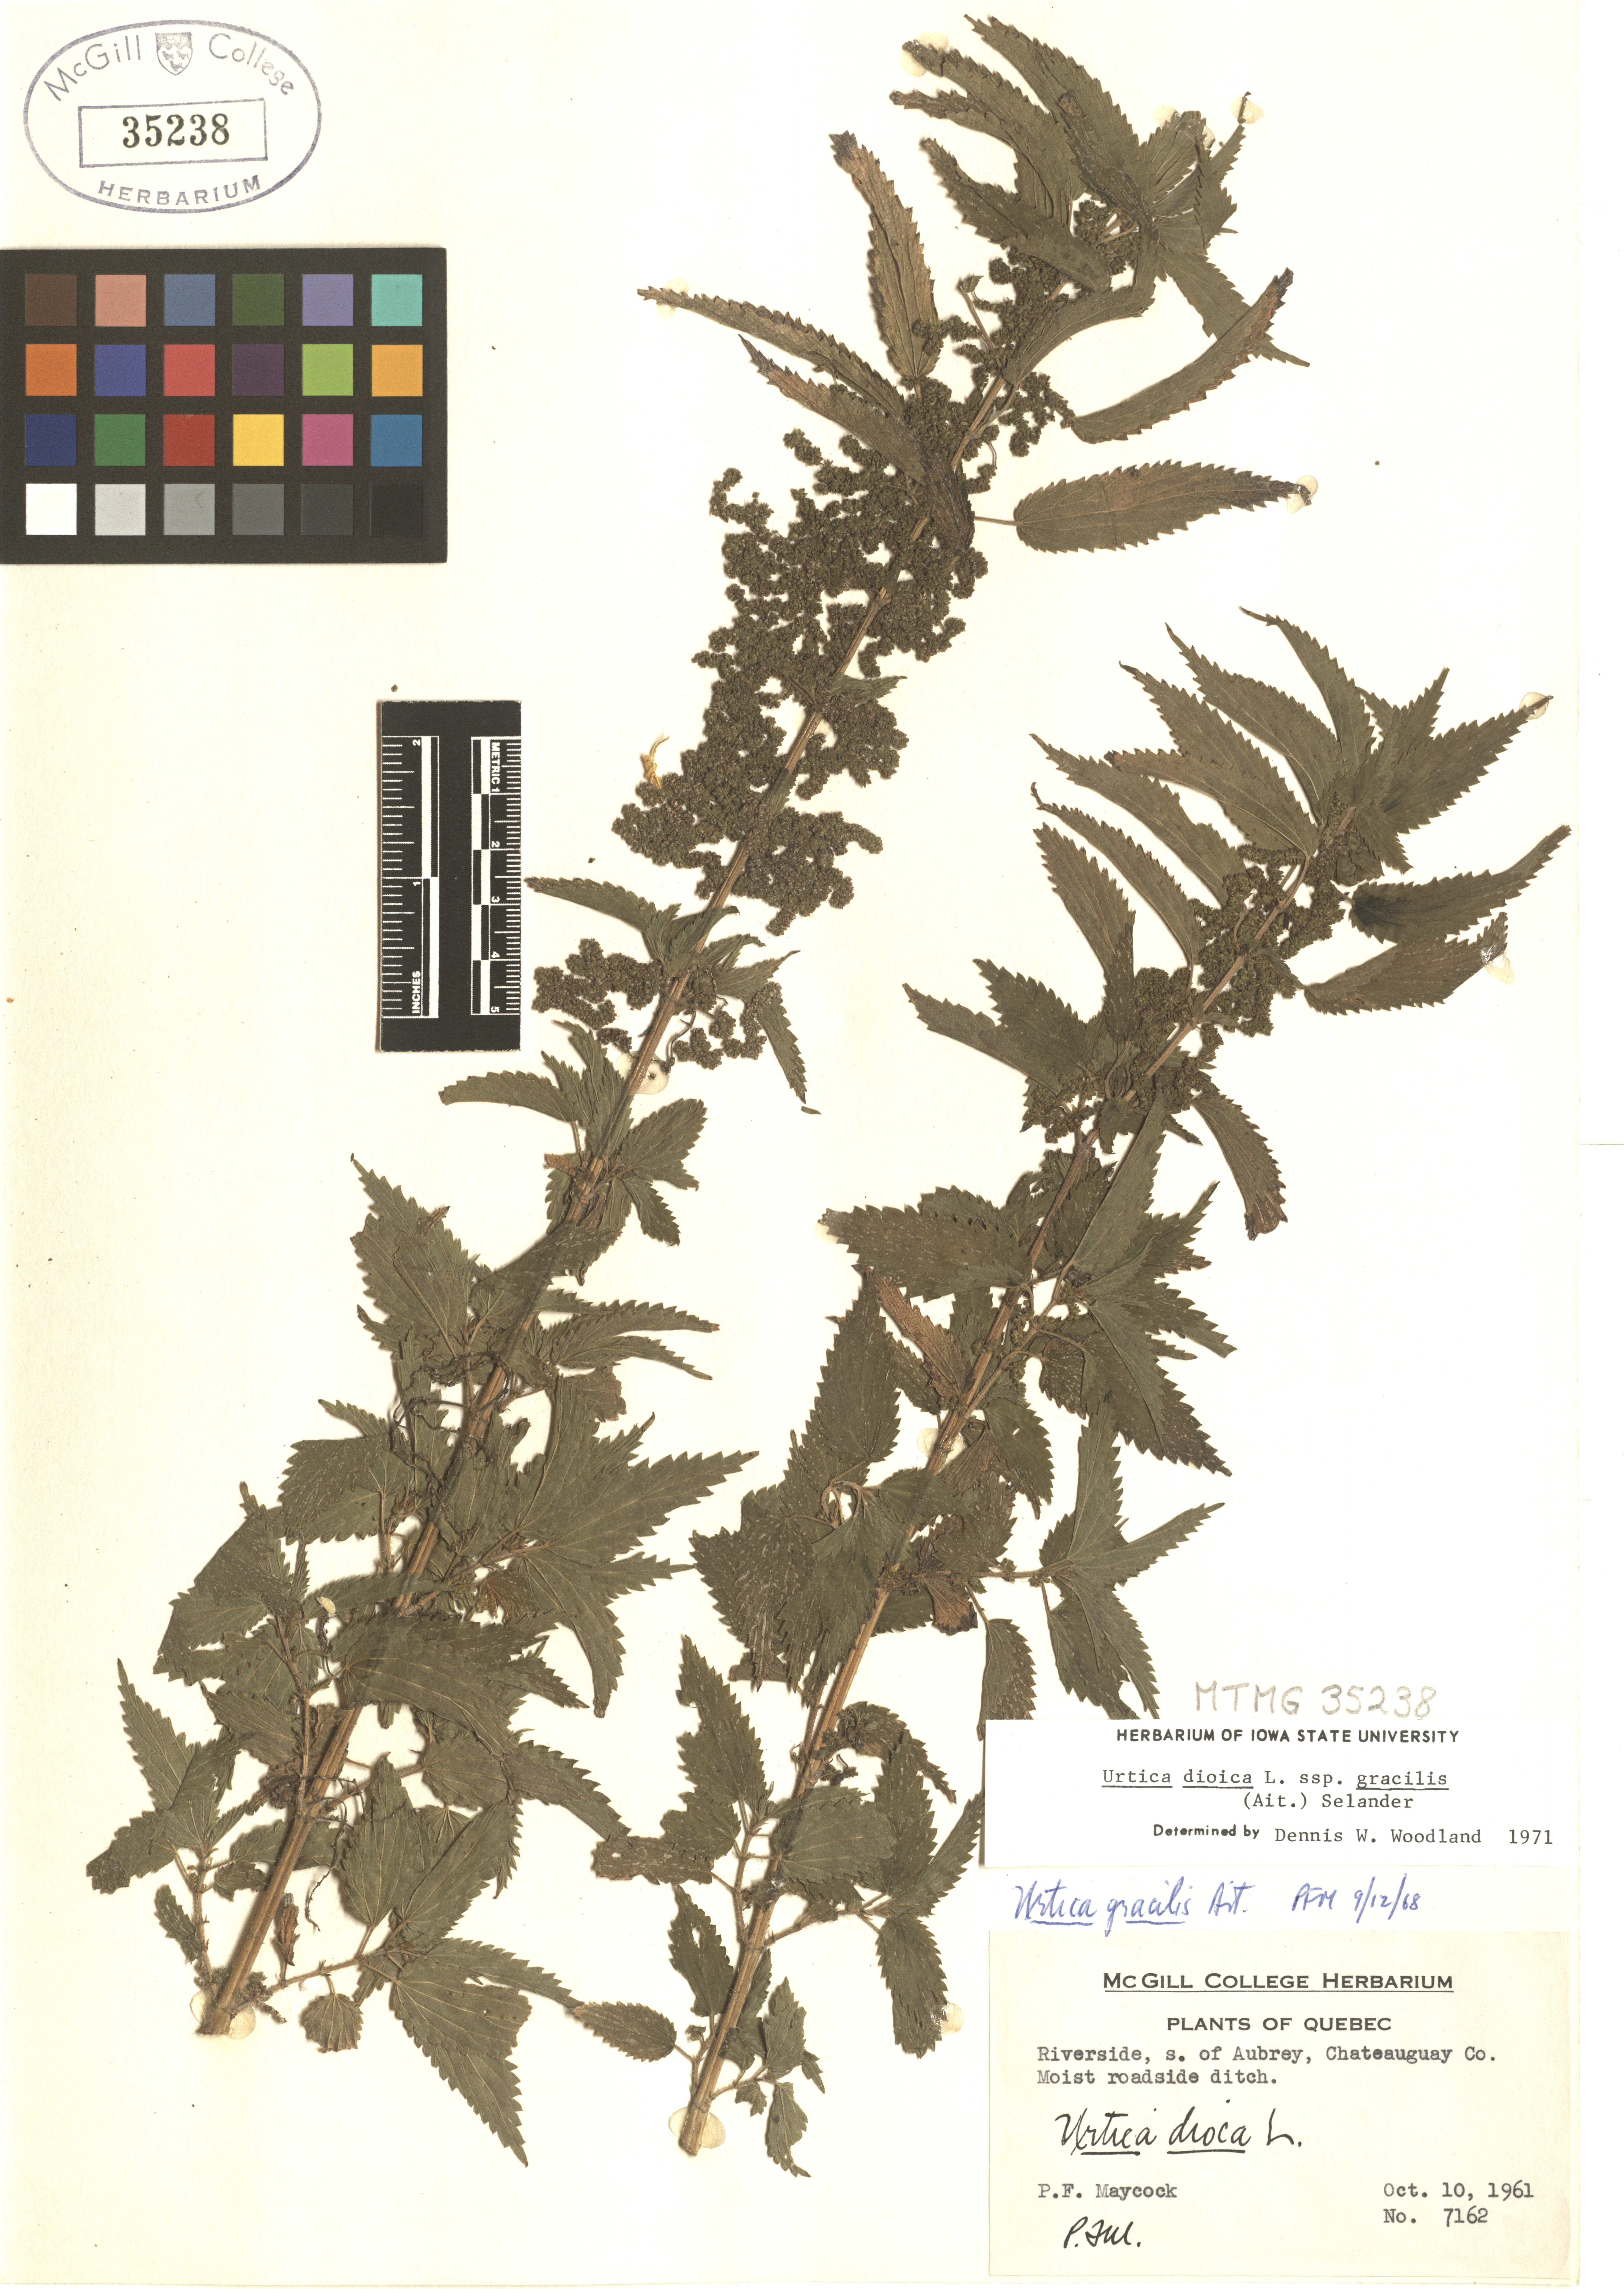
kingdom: Plantae
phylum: Tracheophyta
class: Magnoliopsida
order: Rosales
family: Urticaceae
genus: Urtica
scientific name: Urtica gracilis
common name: Slender stinging nettle
